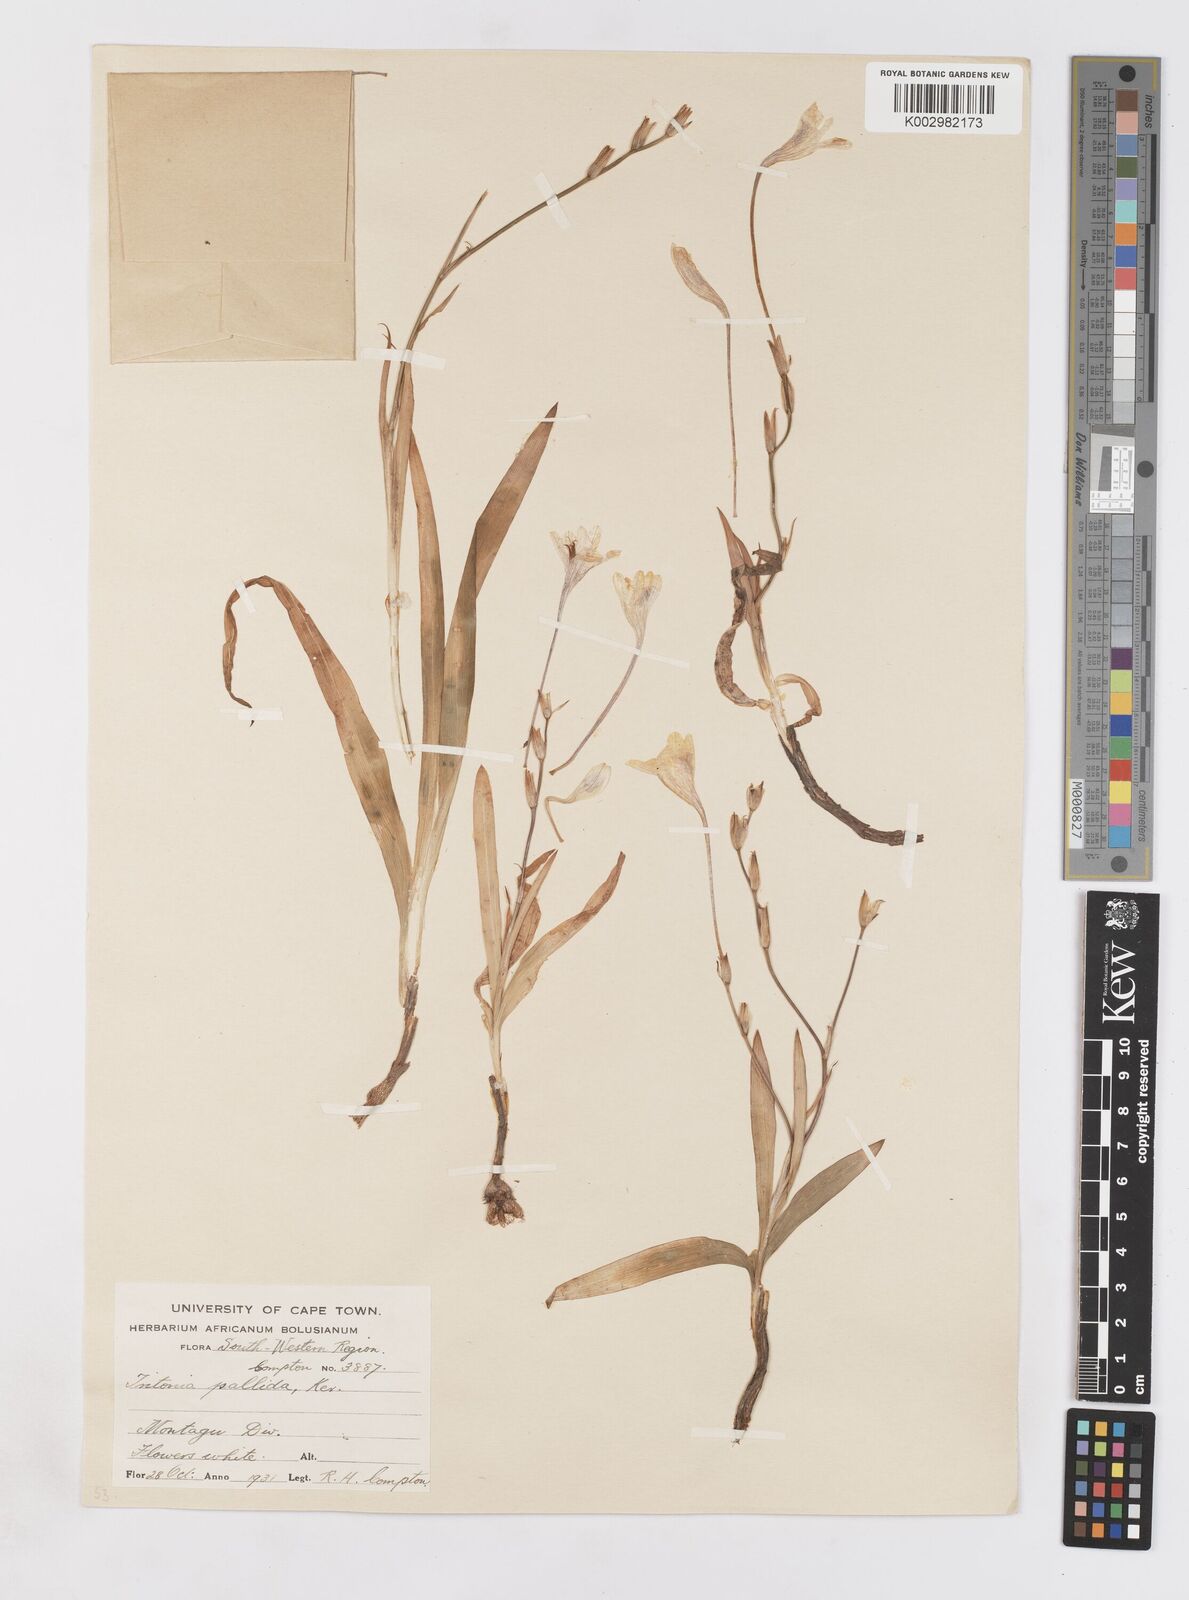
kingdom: Plantae
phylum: Tracheophyta
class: Liliopsida
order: Asparagales
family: Iridaceae
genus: Tritonia
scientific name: Tritonia pallida
